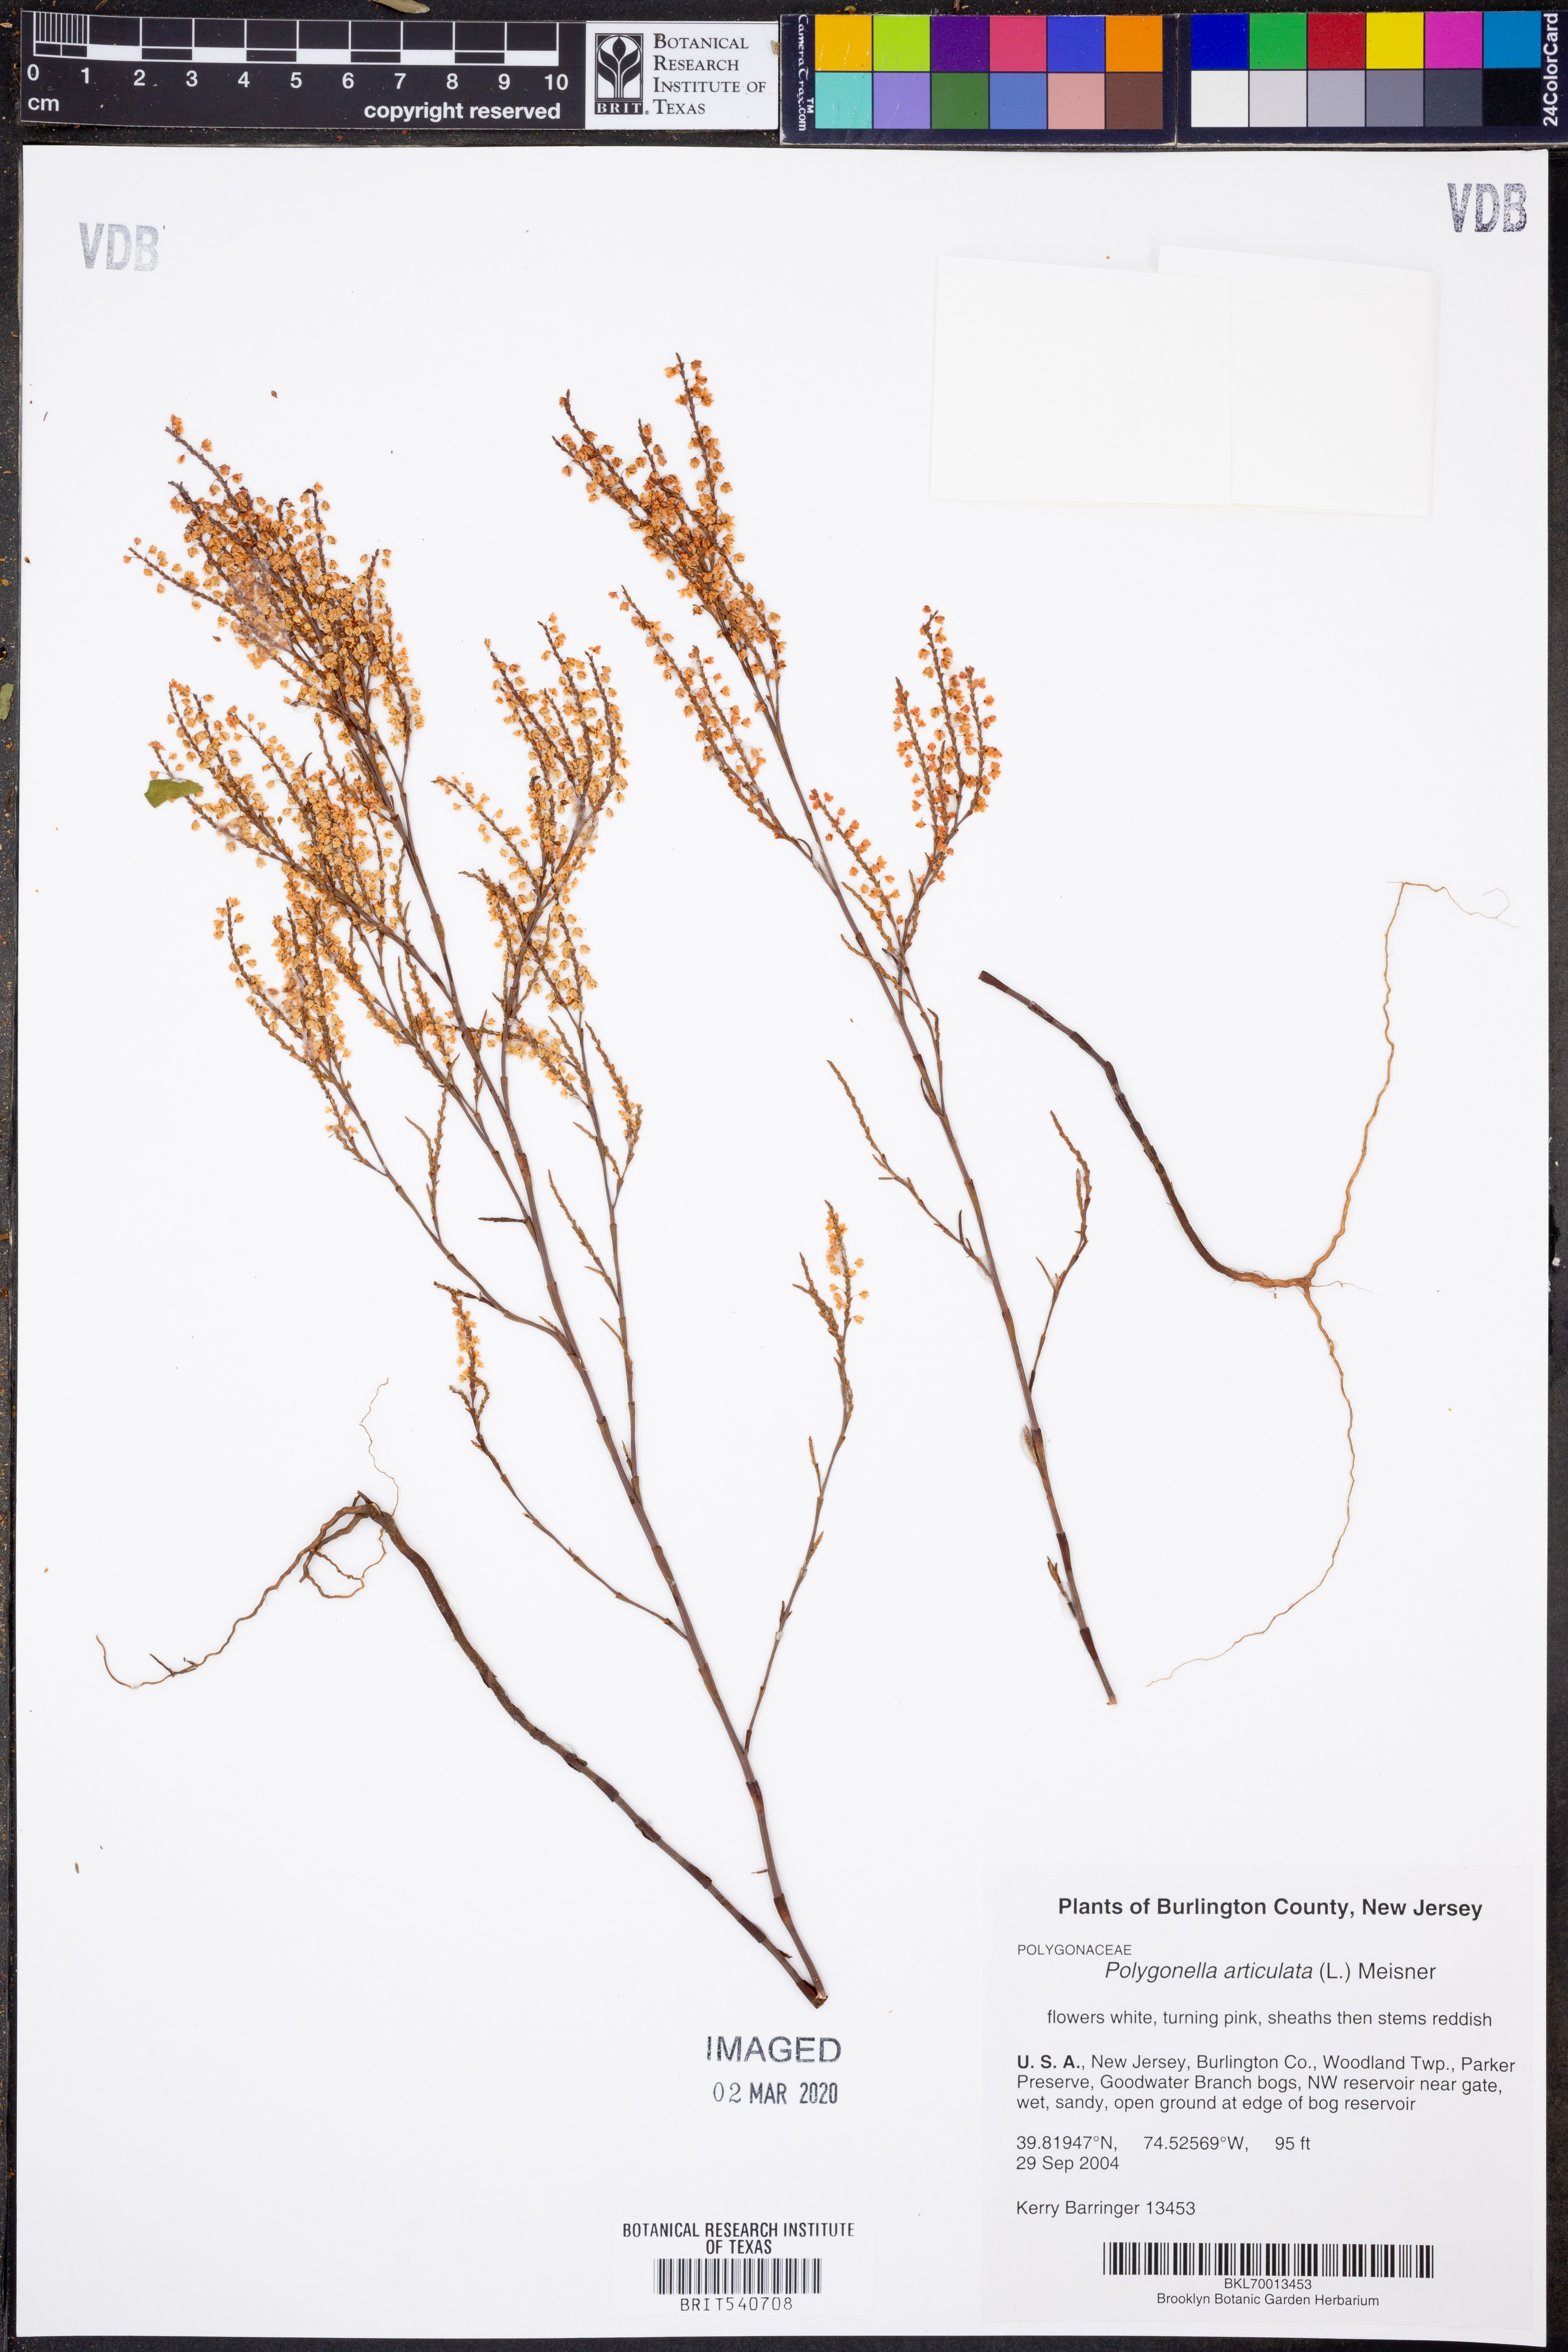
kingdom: Plantae
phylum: Tracheophyta
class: Magnoliopsida
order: Caryophyllales
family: Polygonaceae
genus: Polygonella
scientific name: Polygonella articulata
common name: Coastal jointweed
